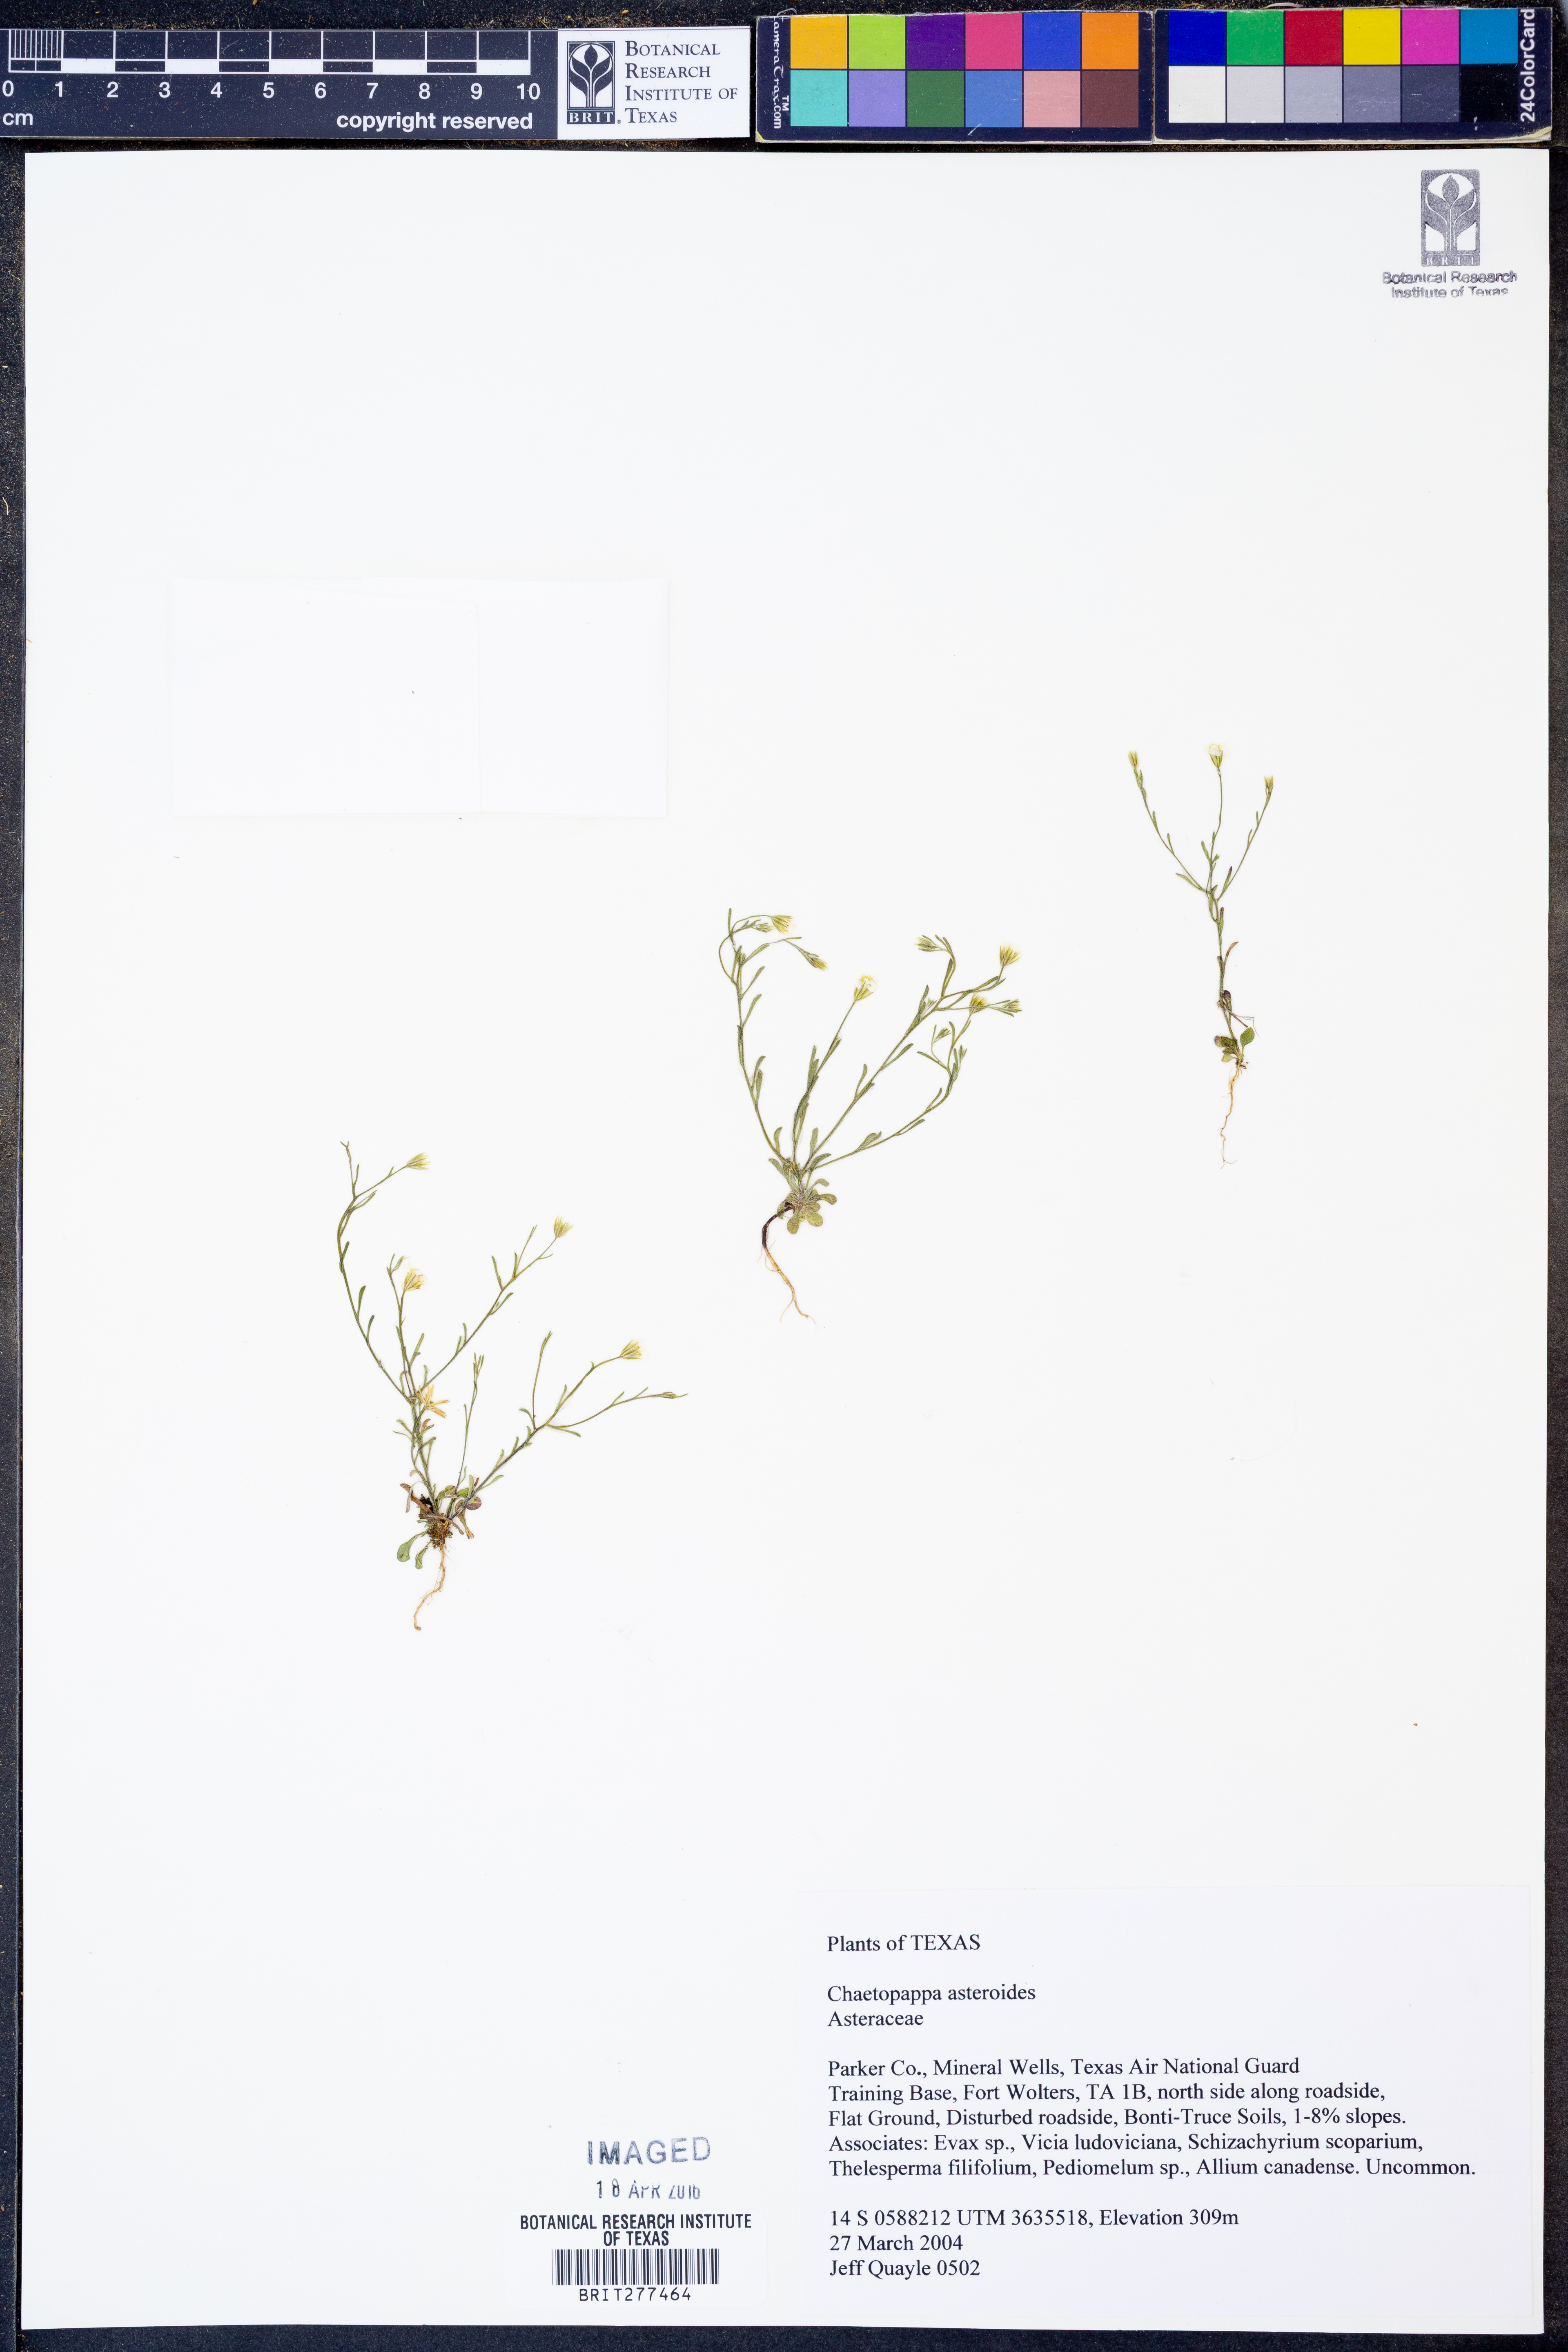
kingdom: Plantae
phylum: Tracheophyta
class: Magnoliopsida
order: Asterales
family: Asteraceae
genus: Chaetopappa
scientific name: Chaetopappa asteroides
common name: Tiny lazy daisy
